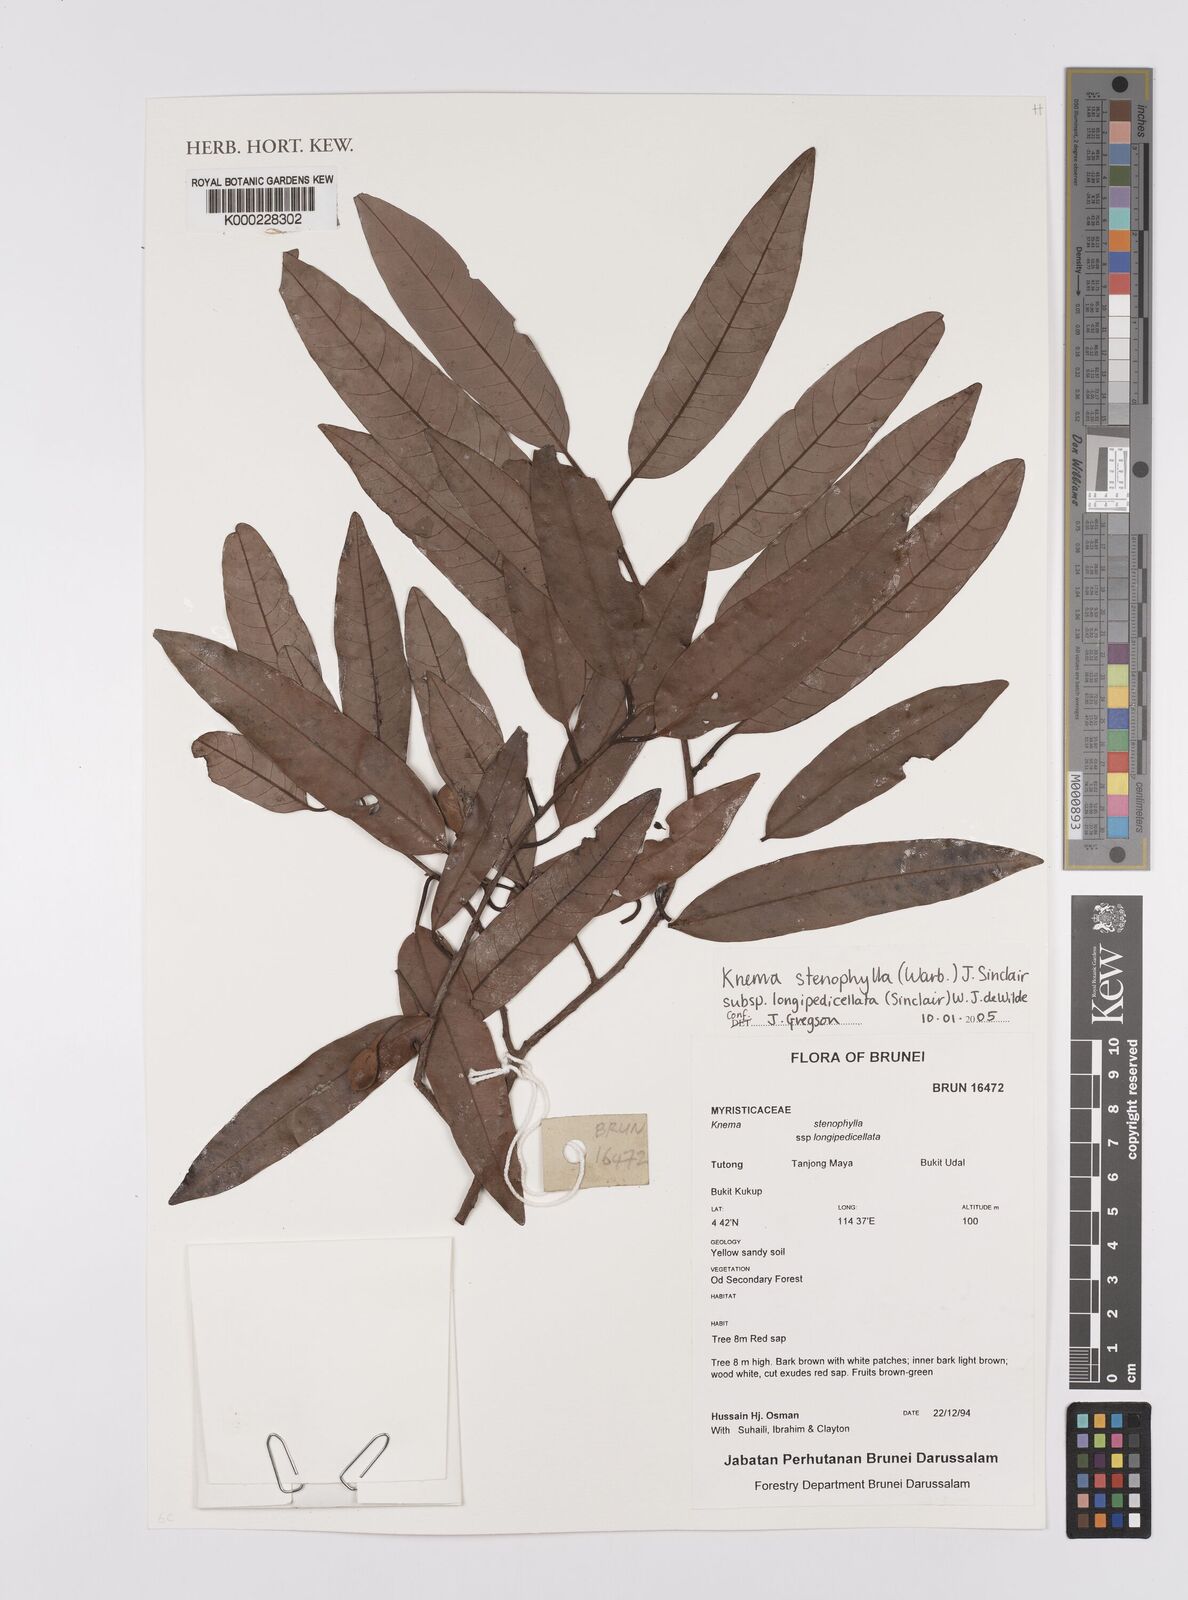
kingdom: Plantae
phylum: Tracheophyta
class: Magnoliopsida
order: Magnoliales
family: Myristicaceae
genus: Knema
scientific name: Knema stenophylla
